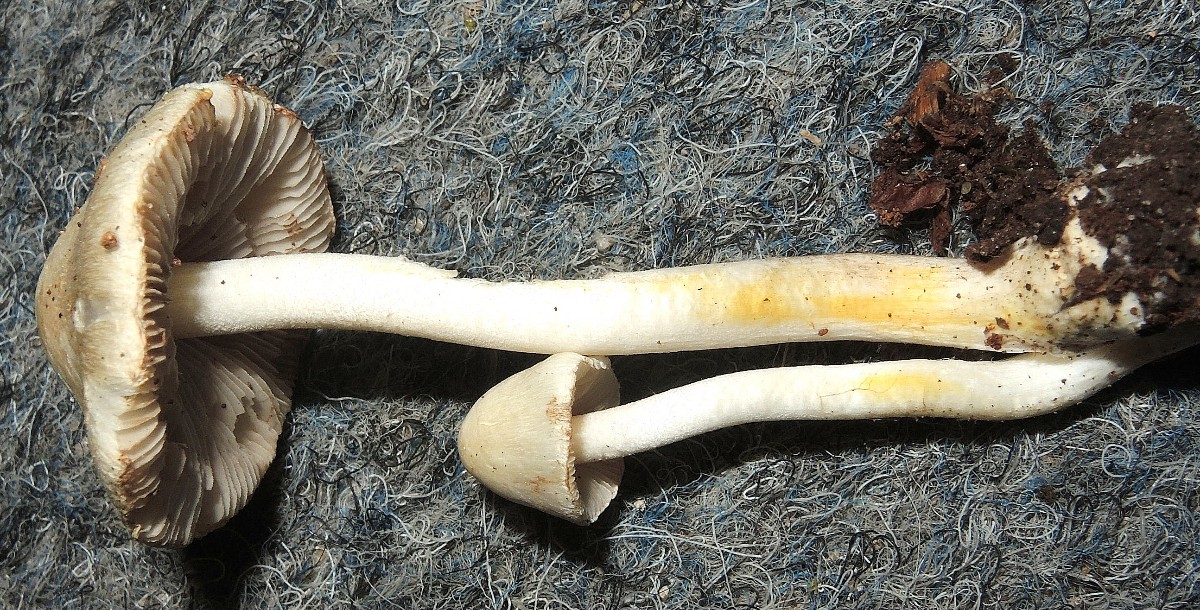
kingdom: Fungi
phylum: Basidiomycota
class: Agaricomycetes
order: Agaricales
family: Inocybaceae
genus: Inocybe
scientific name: Inocybe
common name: trævlhat
